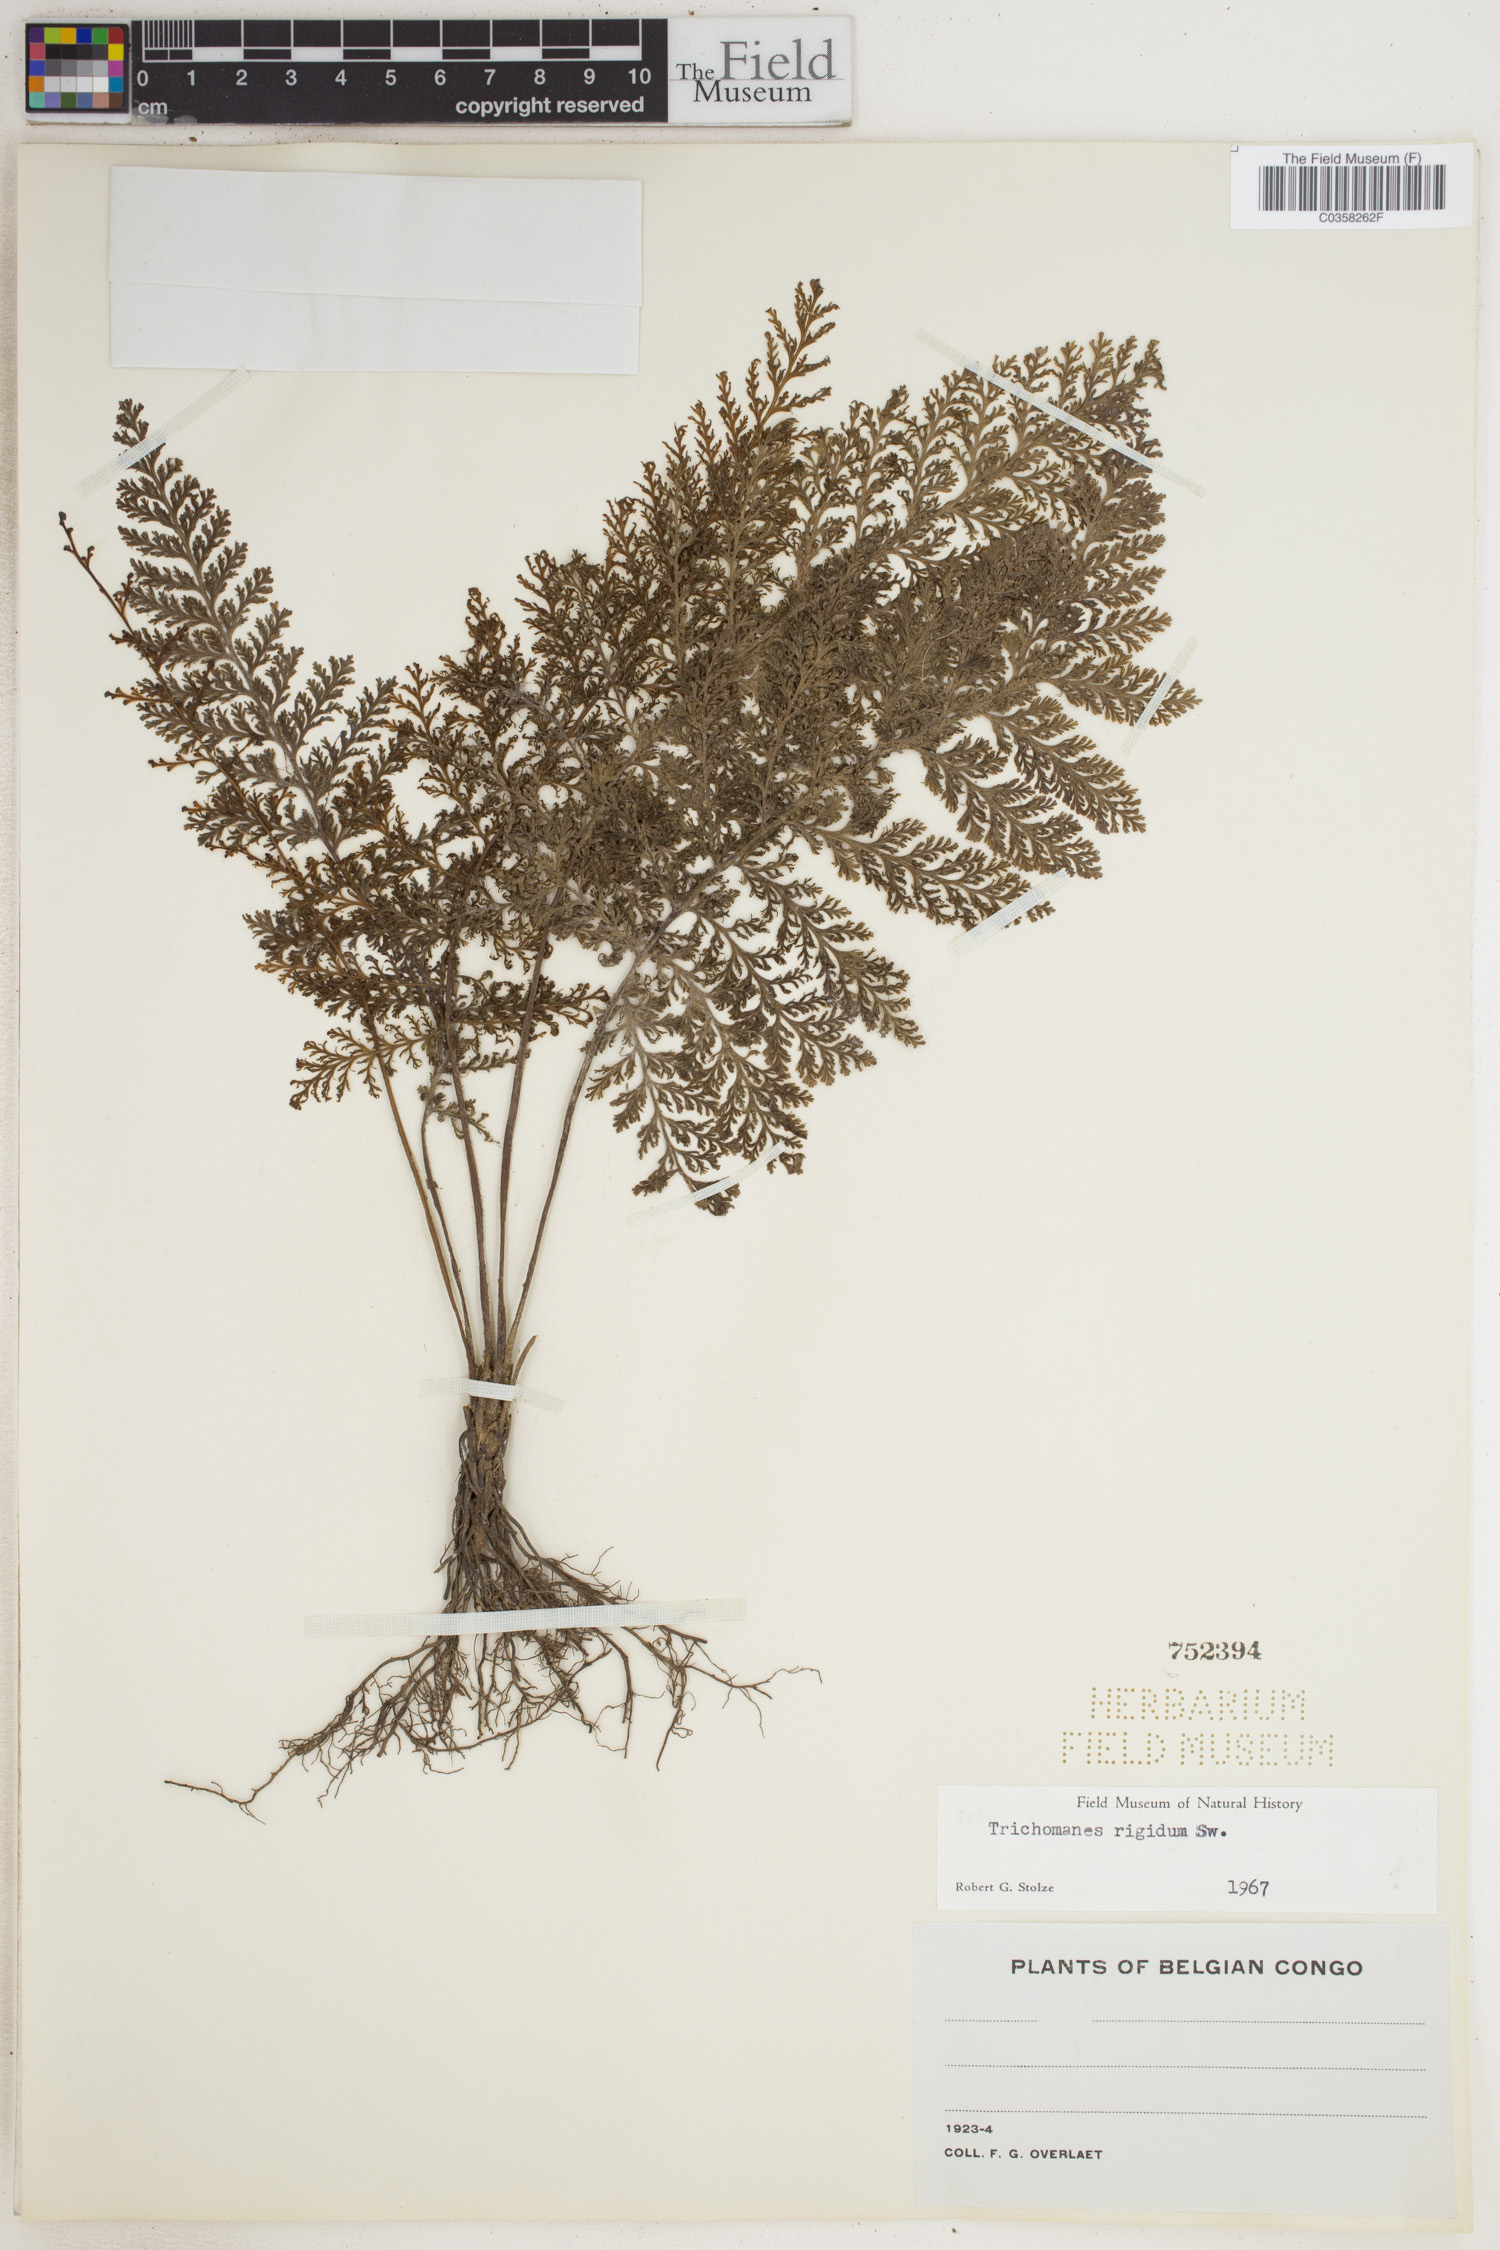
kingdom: Plantae
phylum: Tracheophyta
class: Polypodiopsida
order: Hymenophyllales
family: Hymenophyllaceae
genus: Abrodictyum
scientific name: Abrodictyum rigidum
